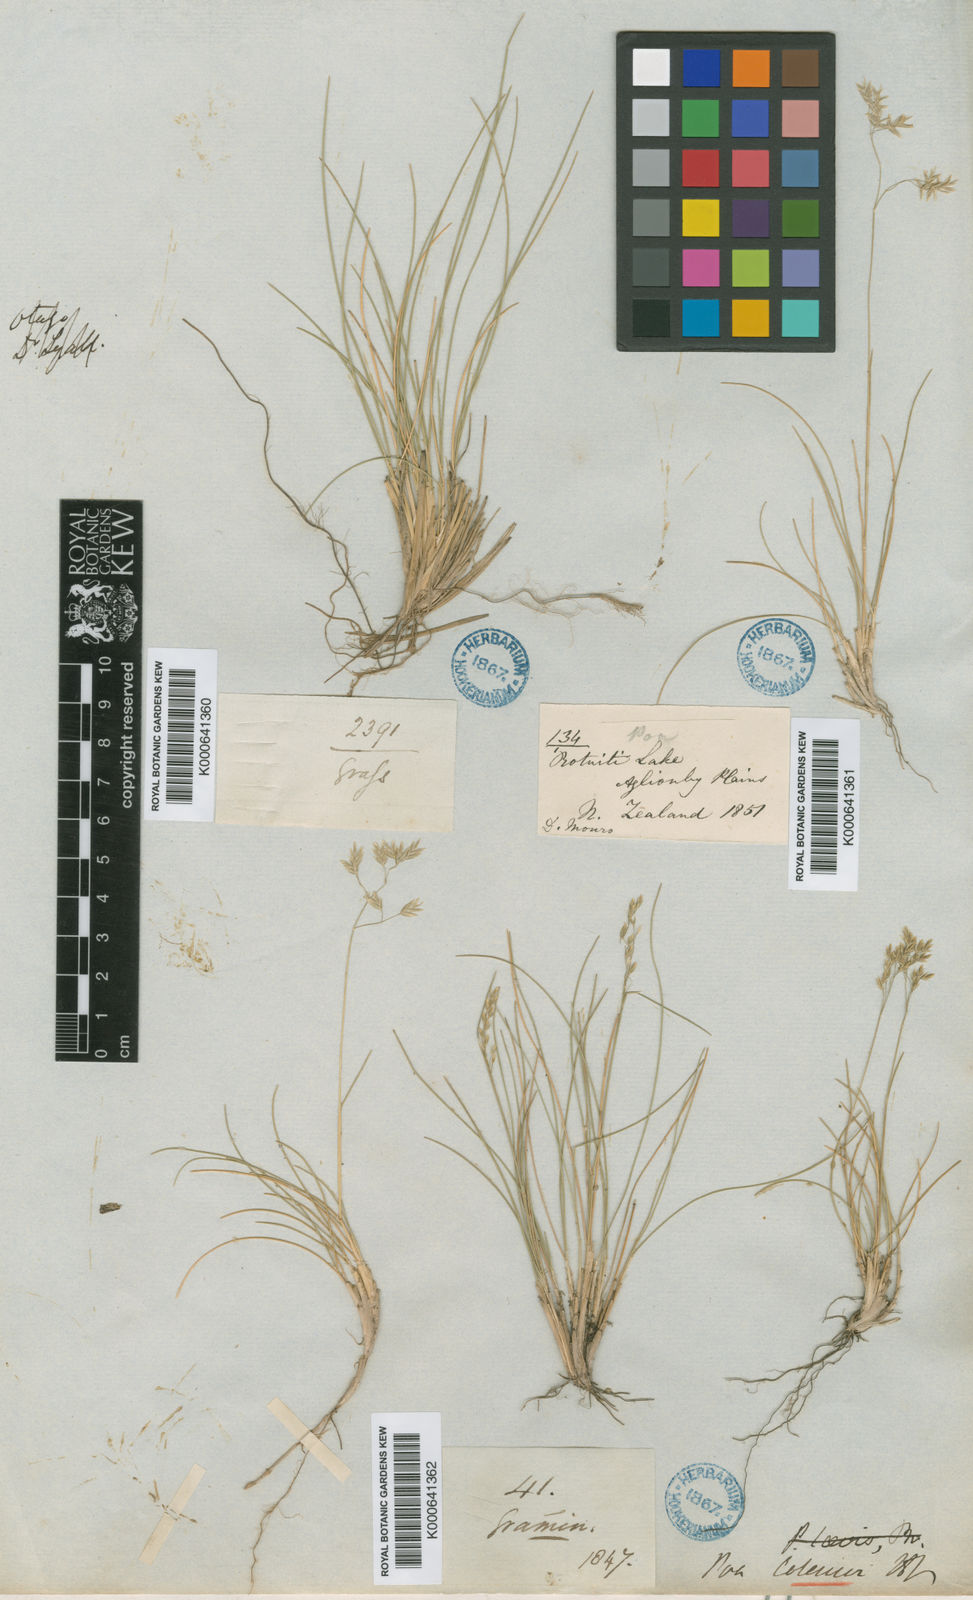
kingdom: Plantae
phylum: Tracheophyta
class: Liliopsida
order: Poales
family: Poaceae
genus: Poa
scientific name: Poa colensoi
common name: Blue tussock
